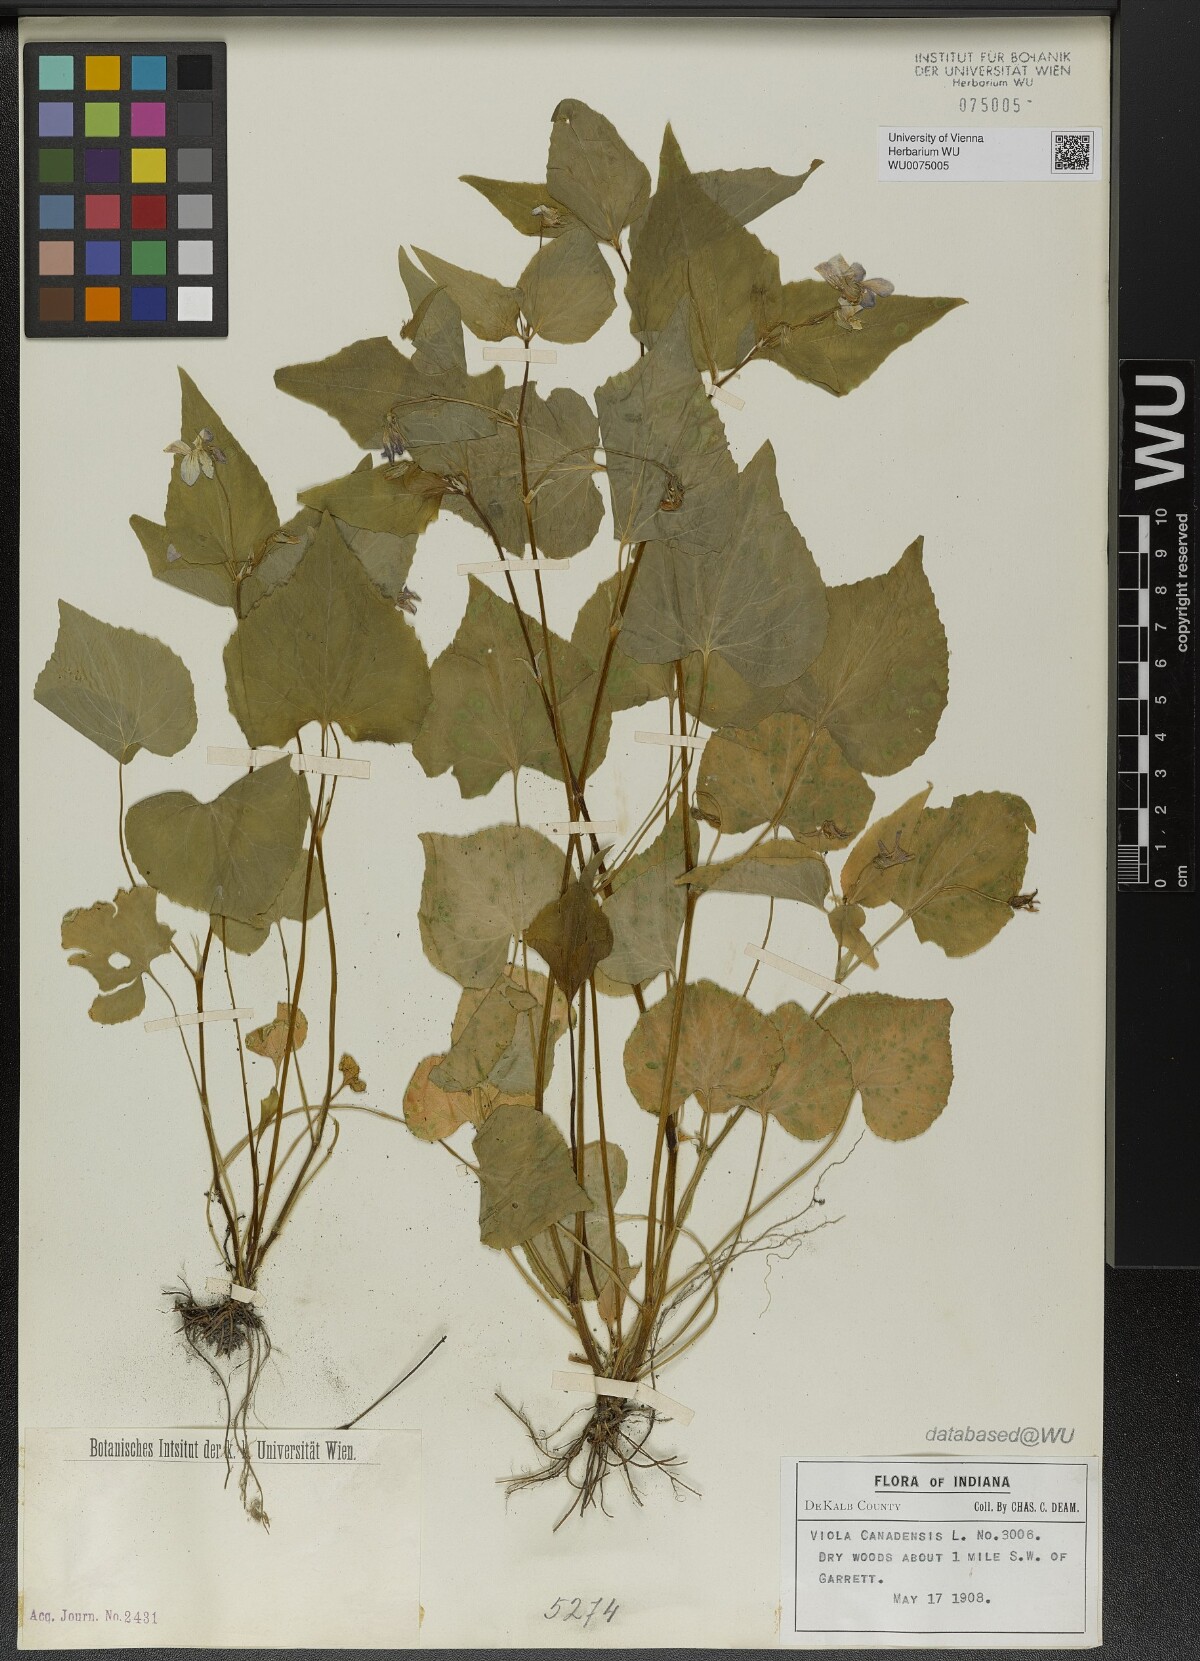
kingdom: Plantae
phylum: Tracheophyta
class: Magnoliopsida
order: Malpighiales
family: Violaceae
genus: Viola
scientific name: Viola canadensis
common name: Canada violet
